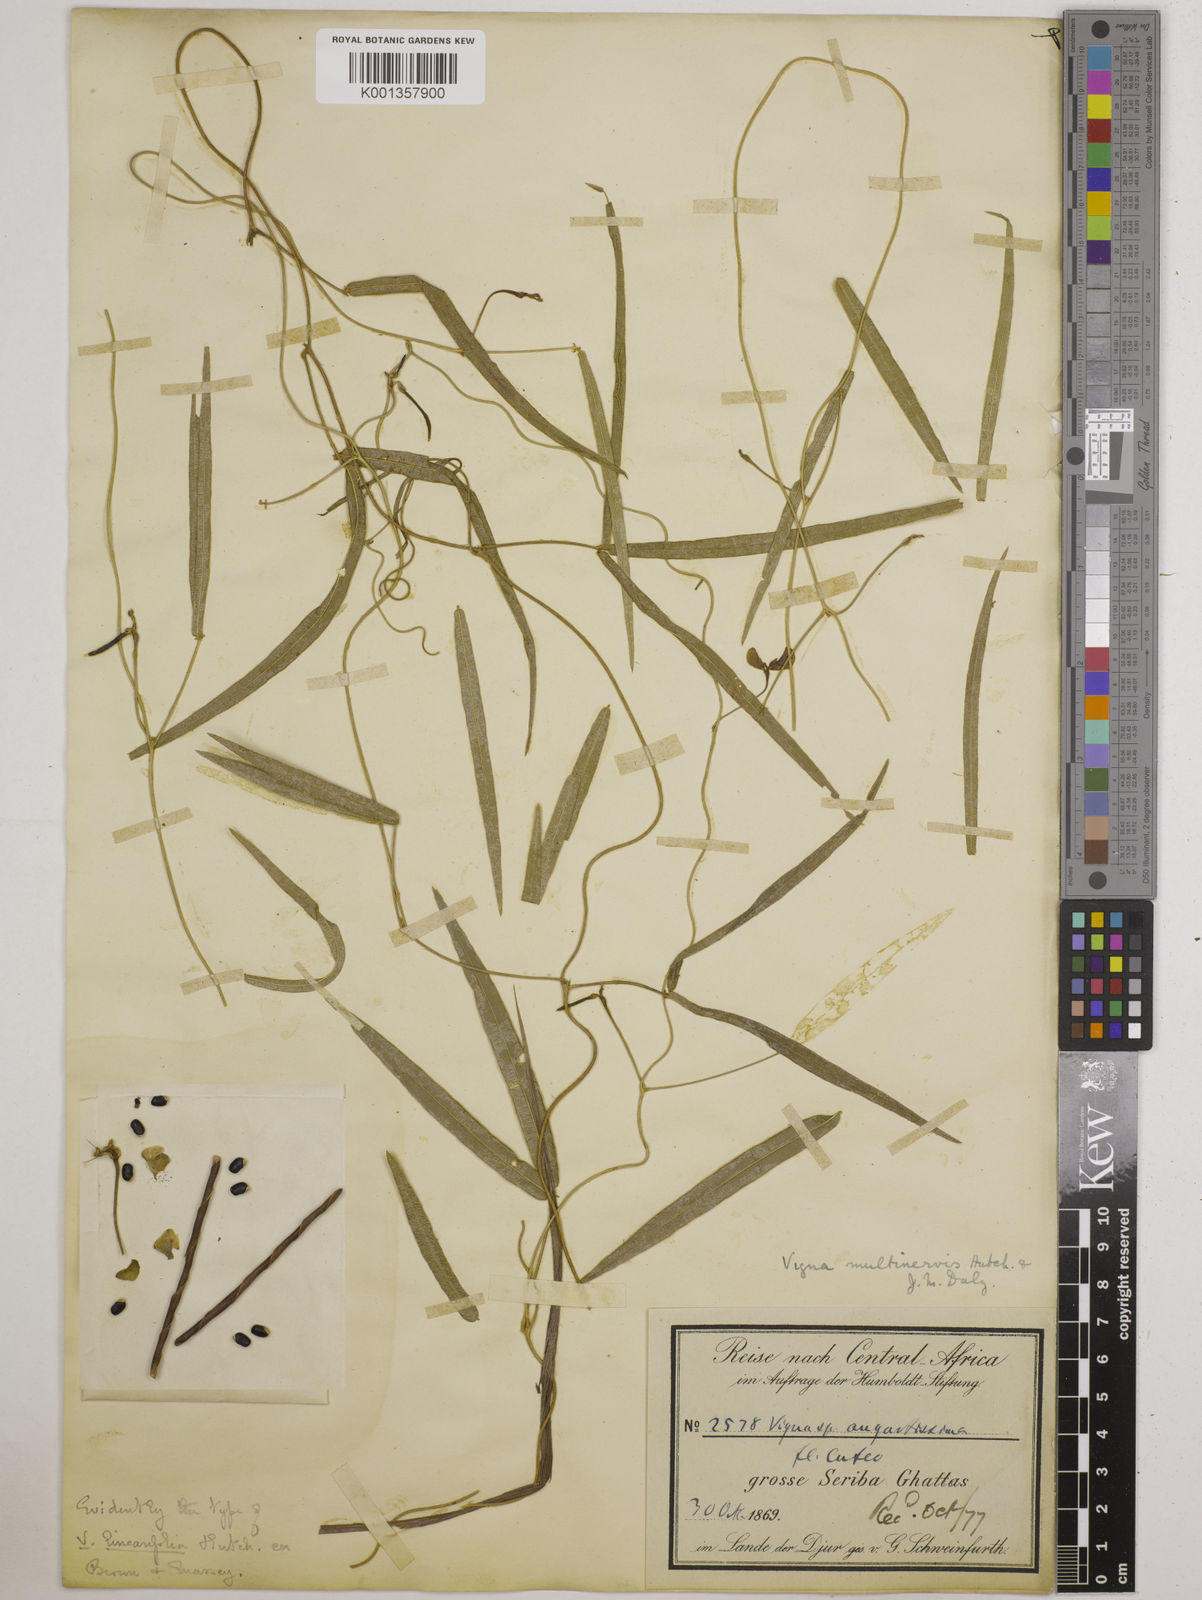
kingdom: Plantae
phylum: Tracheophyta
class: Magnoliopsida
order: Fabales
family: Fabaceae
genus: Vigna
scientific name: Vigna multinervis
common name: Fula-pulaar
